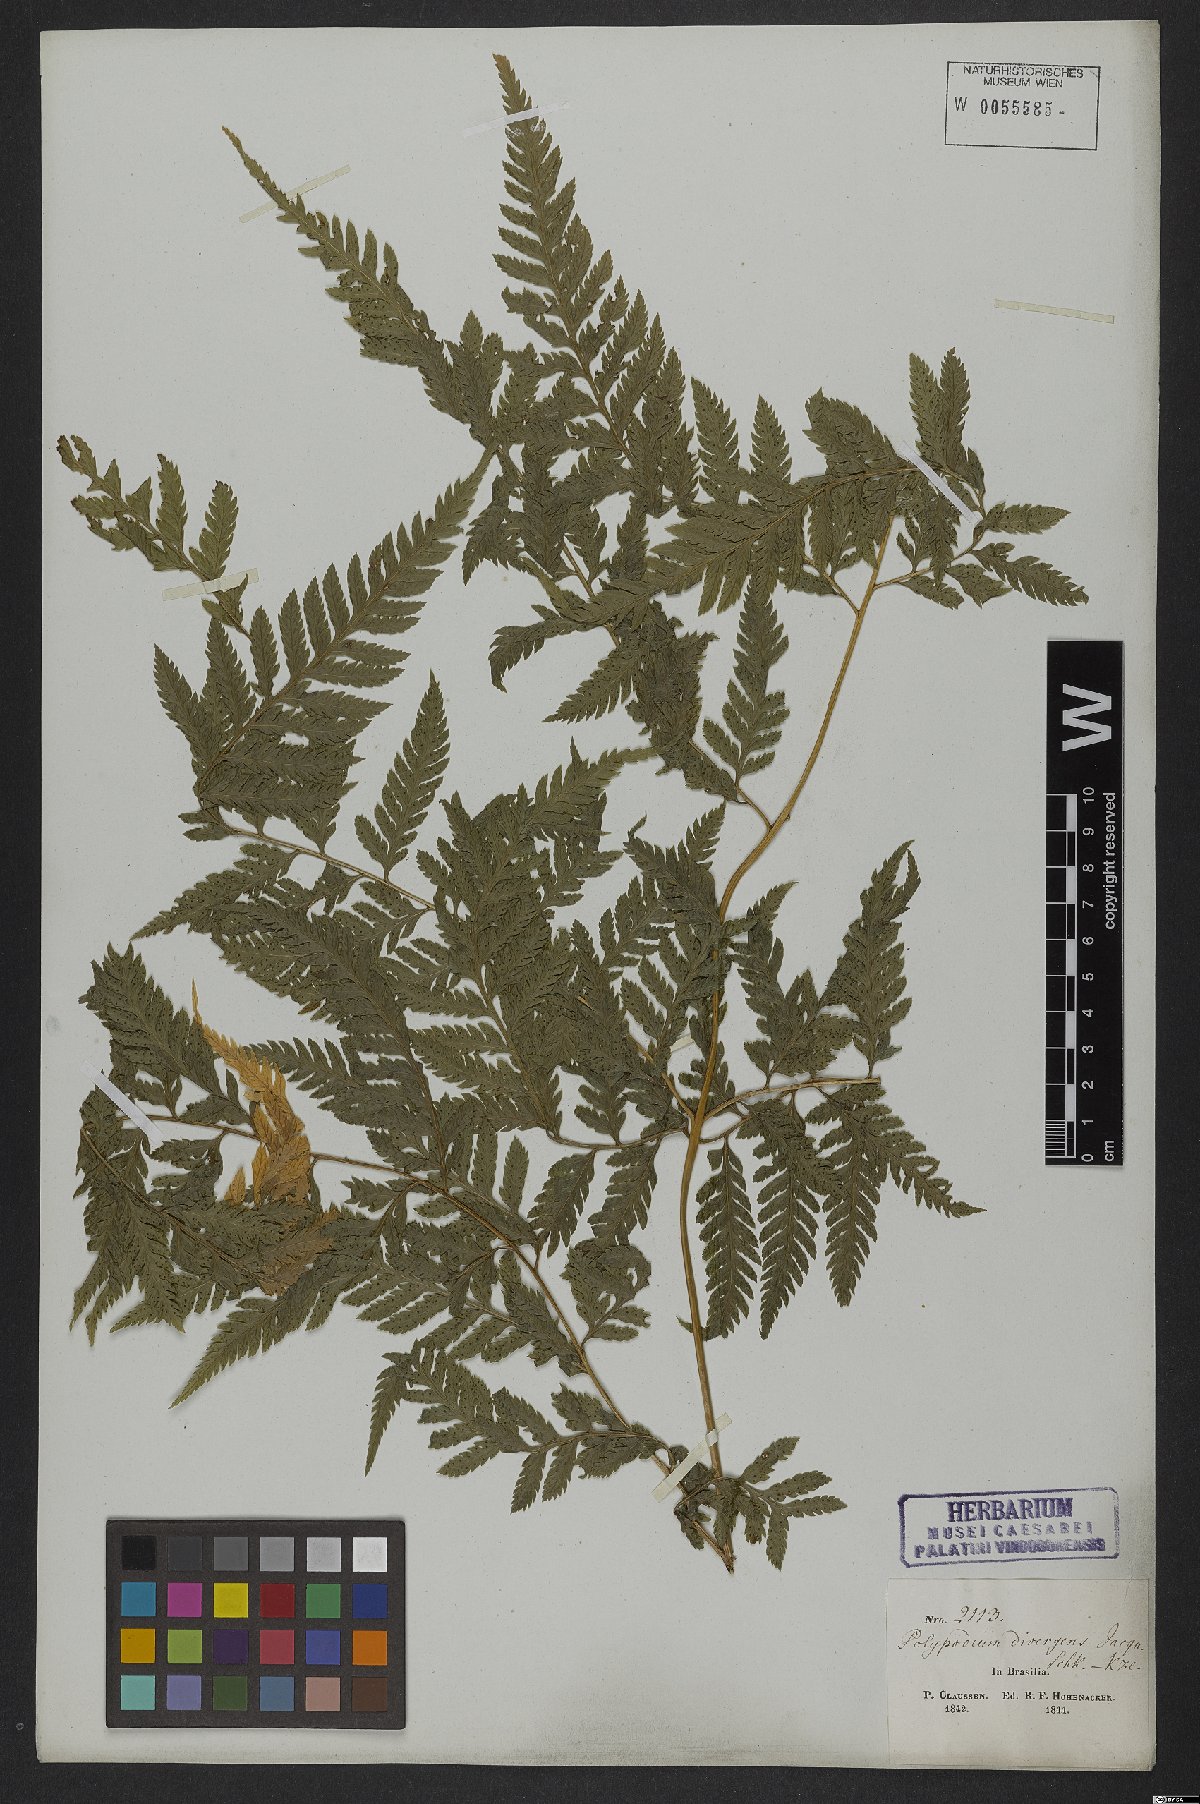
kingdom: Plantae
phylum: Tracheophyta
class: Polypodiopsida
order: Polypodiales
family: Dryopteridaceae
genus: Parapolystichum
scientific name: Parapolystichum effusum
